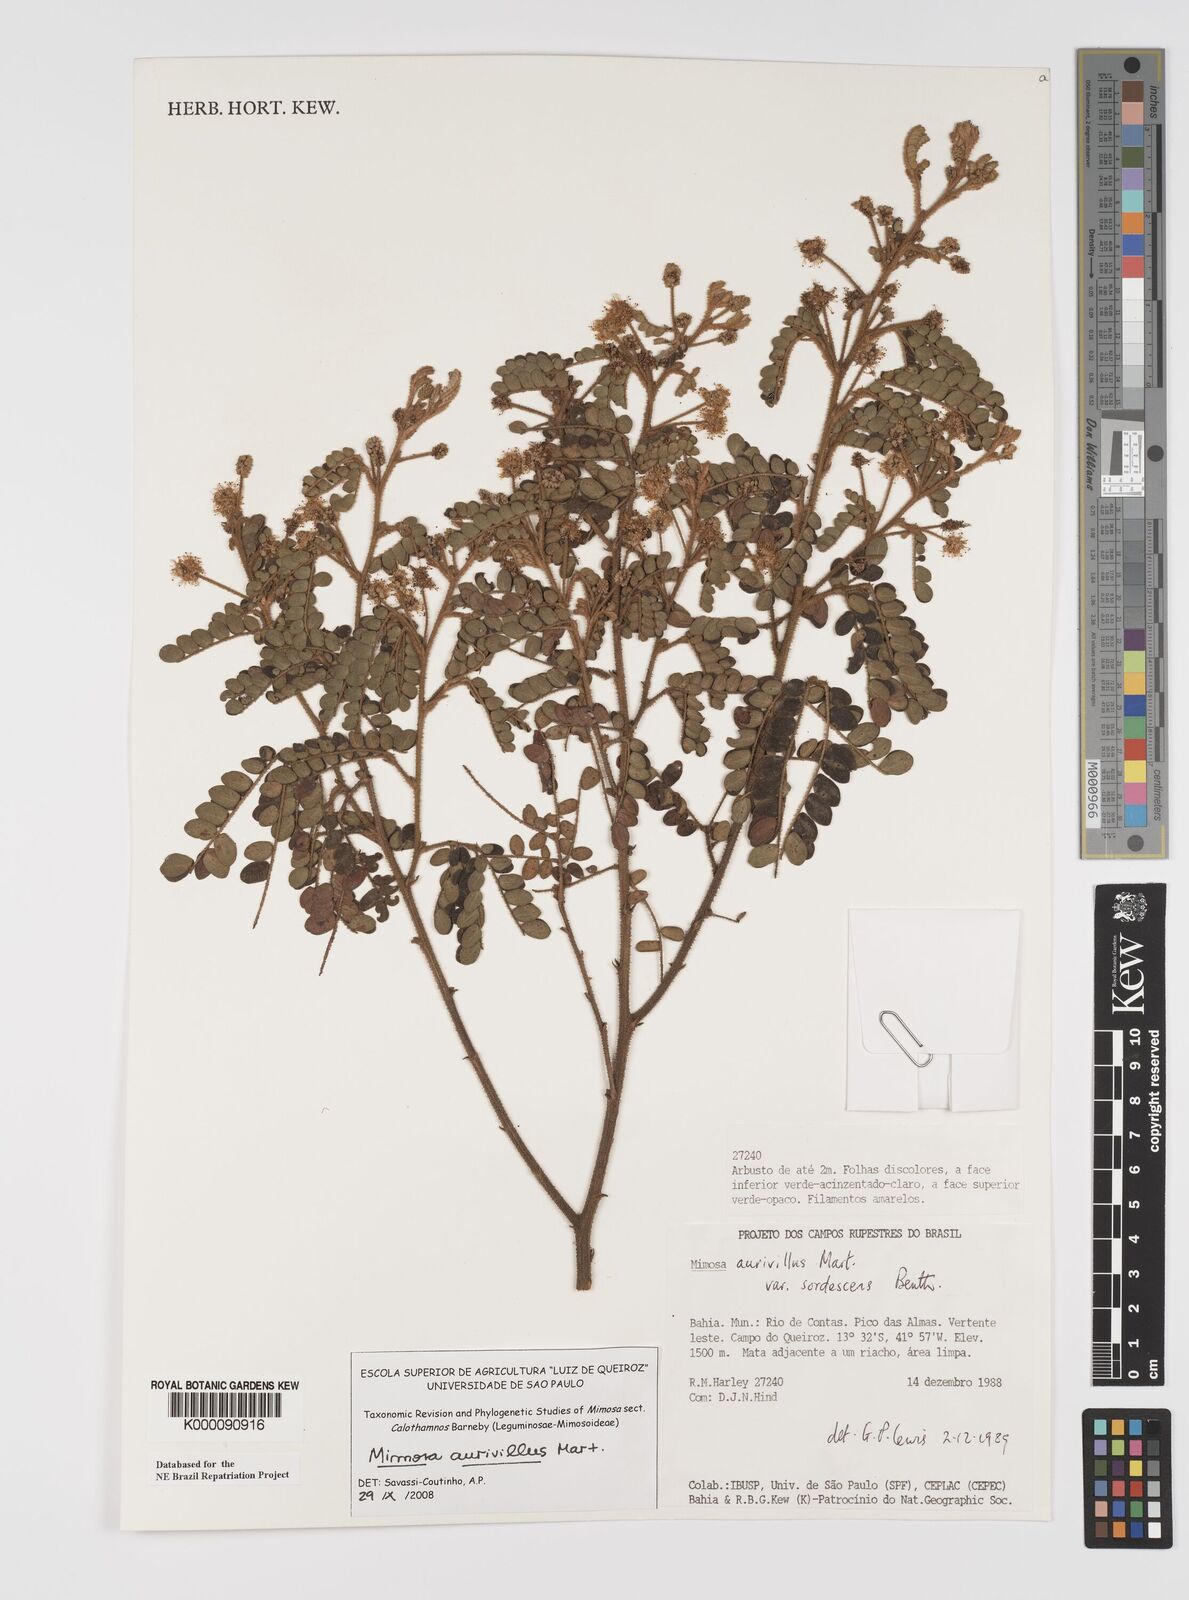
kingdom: Plantae
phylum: Tracheophyta
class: Magnoliopsida
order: Fabales
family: Fabaceae
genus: Mimosa
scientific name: Mimosa aurivillus
